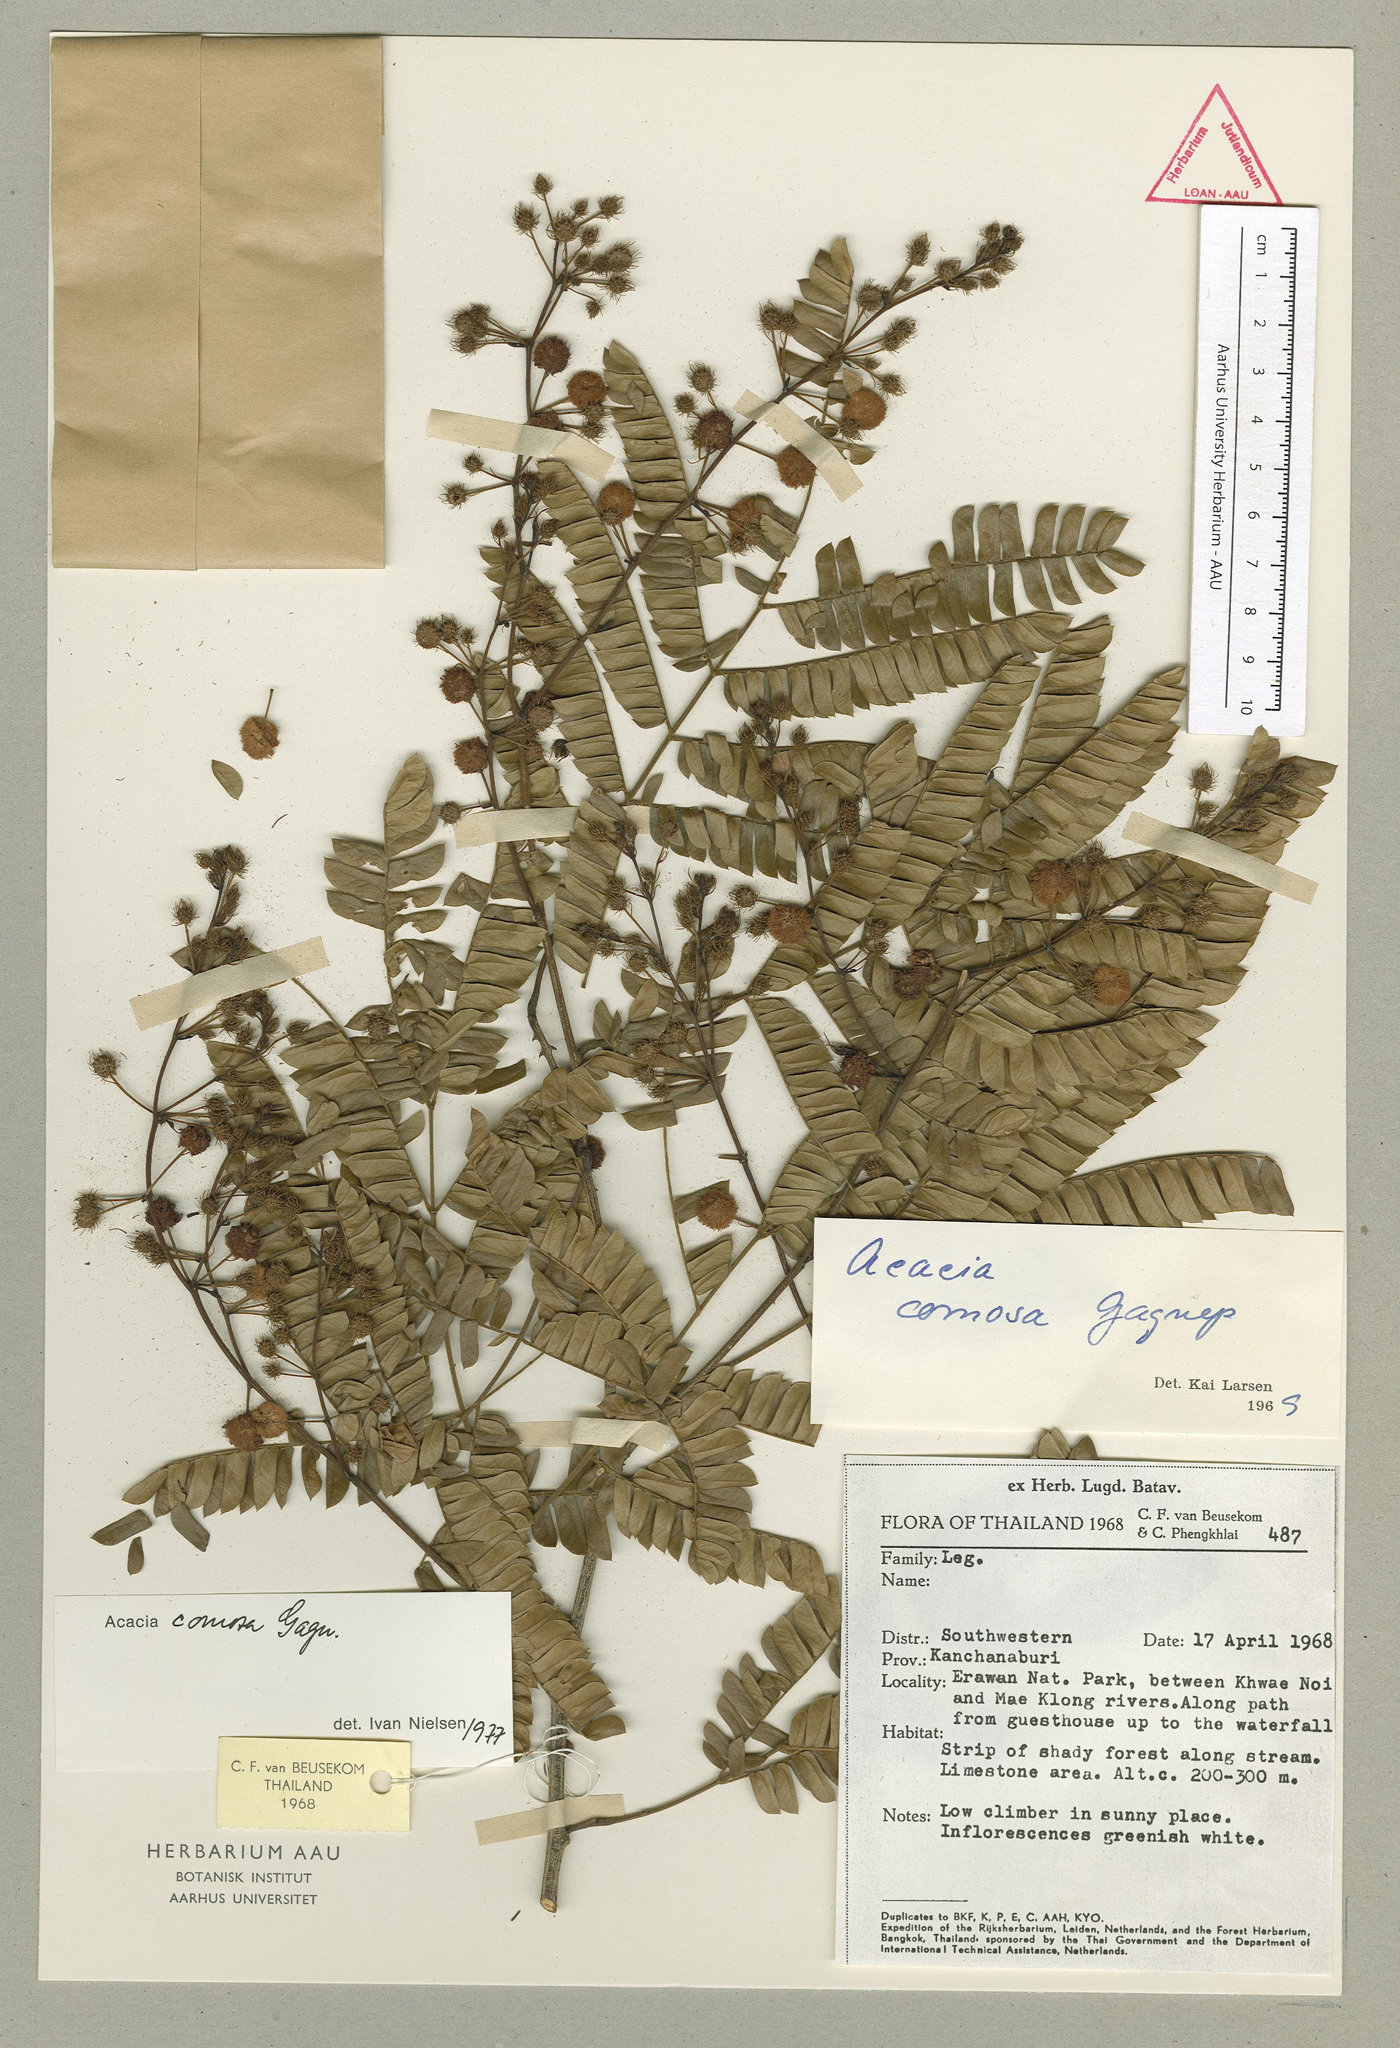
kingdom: Plantae
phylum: Tracheophyta
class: Magnoliopsida
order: Fabales
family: Fabaceae
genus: Senegalia
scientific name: Senegalia comosa
